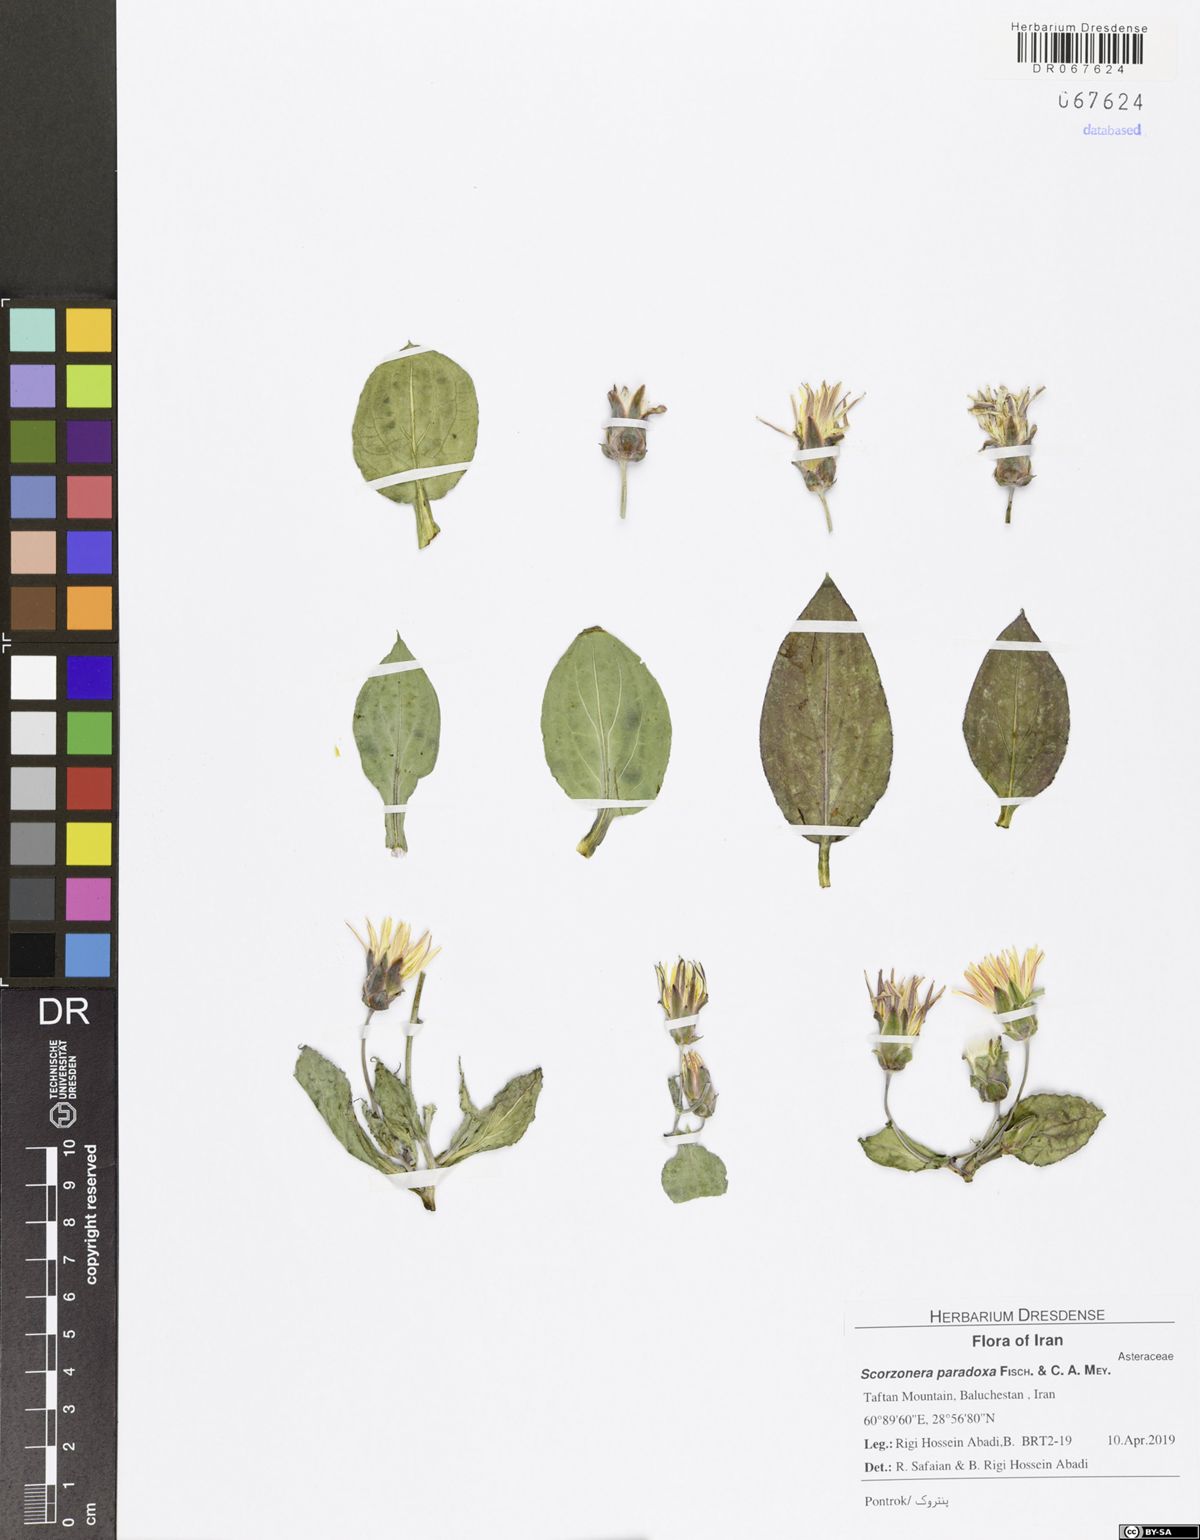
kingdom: Plantae
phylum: Tracheophyta
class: Magnoliopsida
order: Asterales
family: Asteraceae
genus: Scorzonera
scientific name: Scorzonera paradoxa
